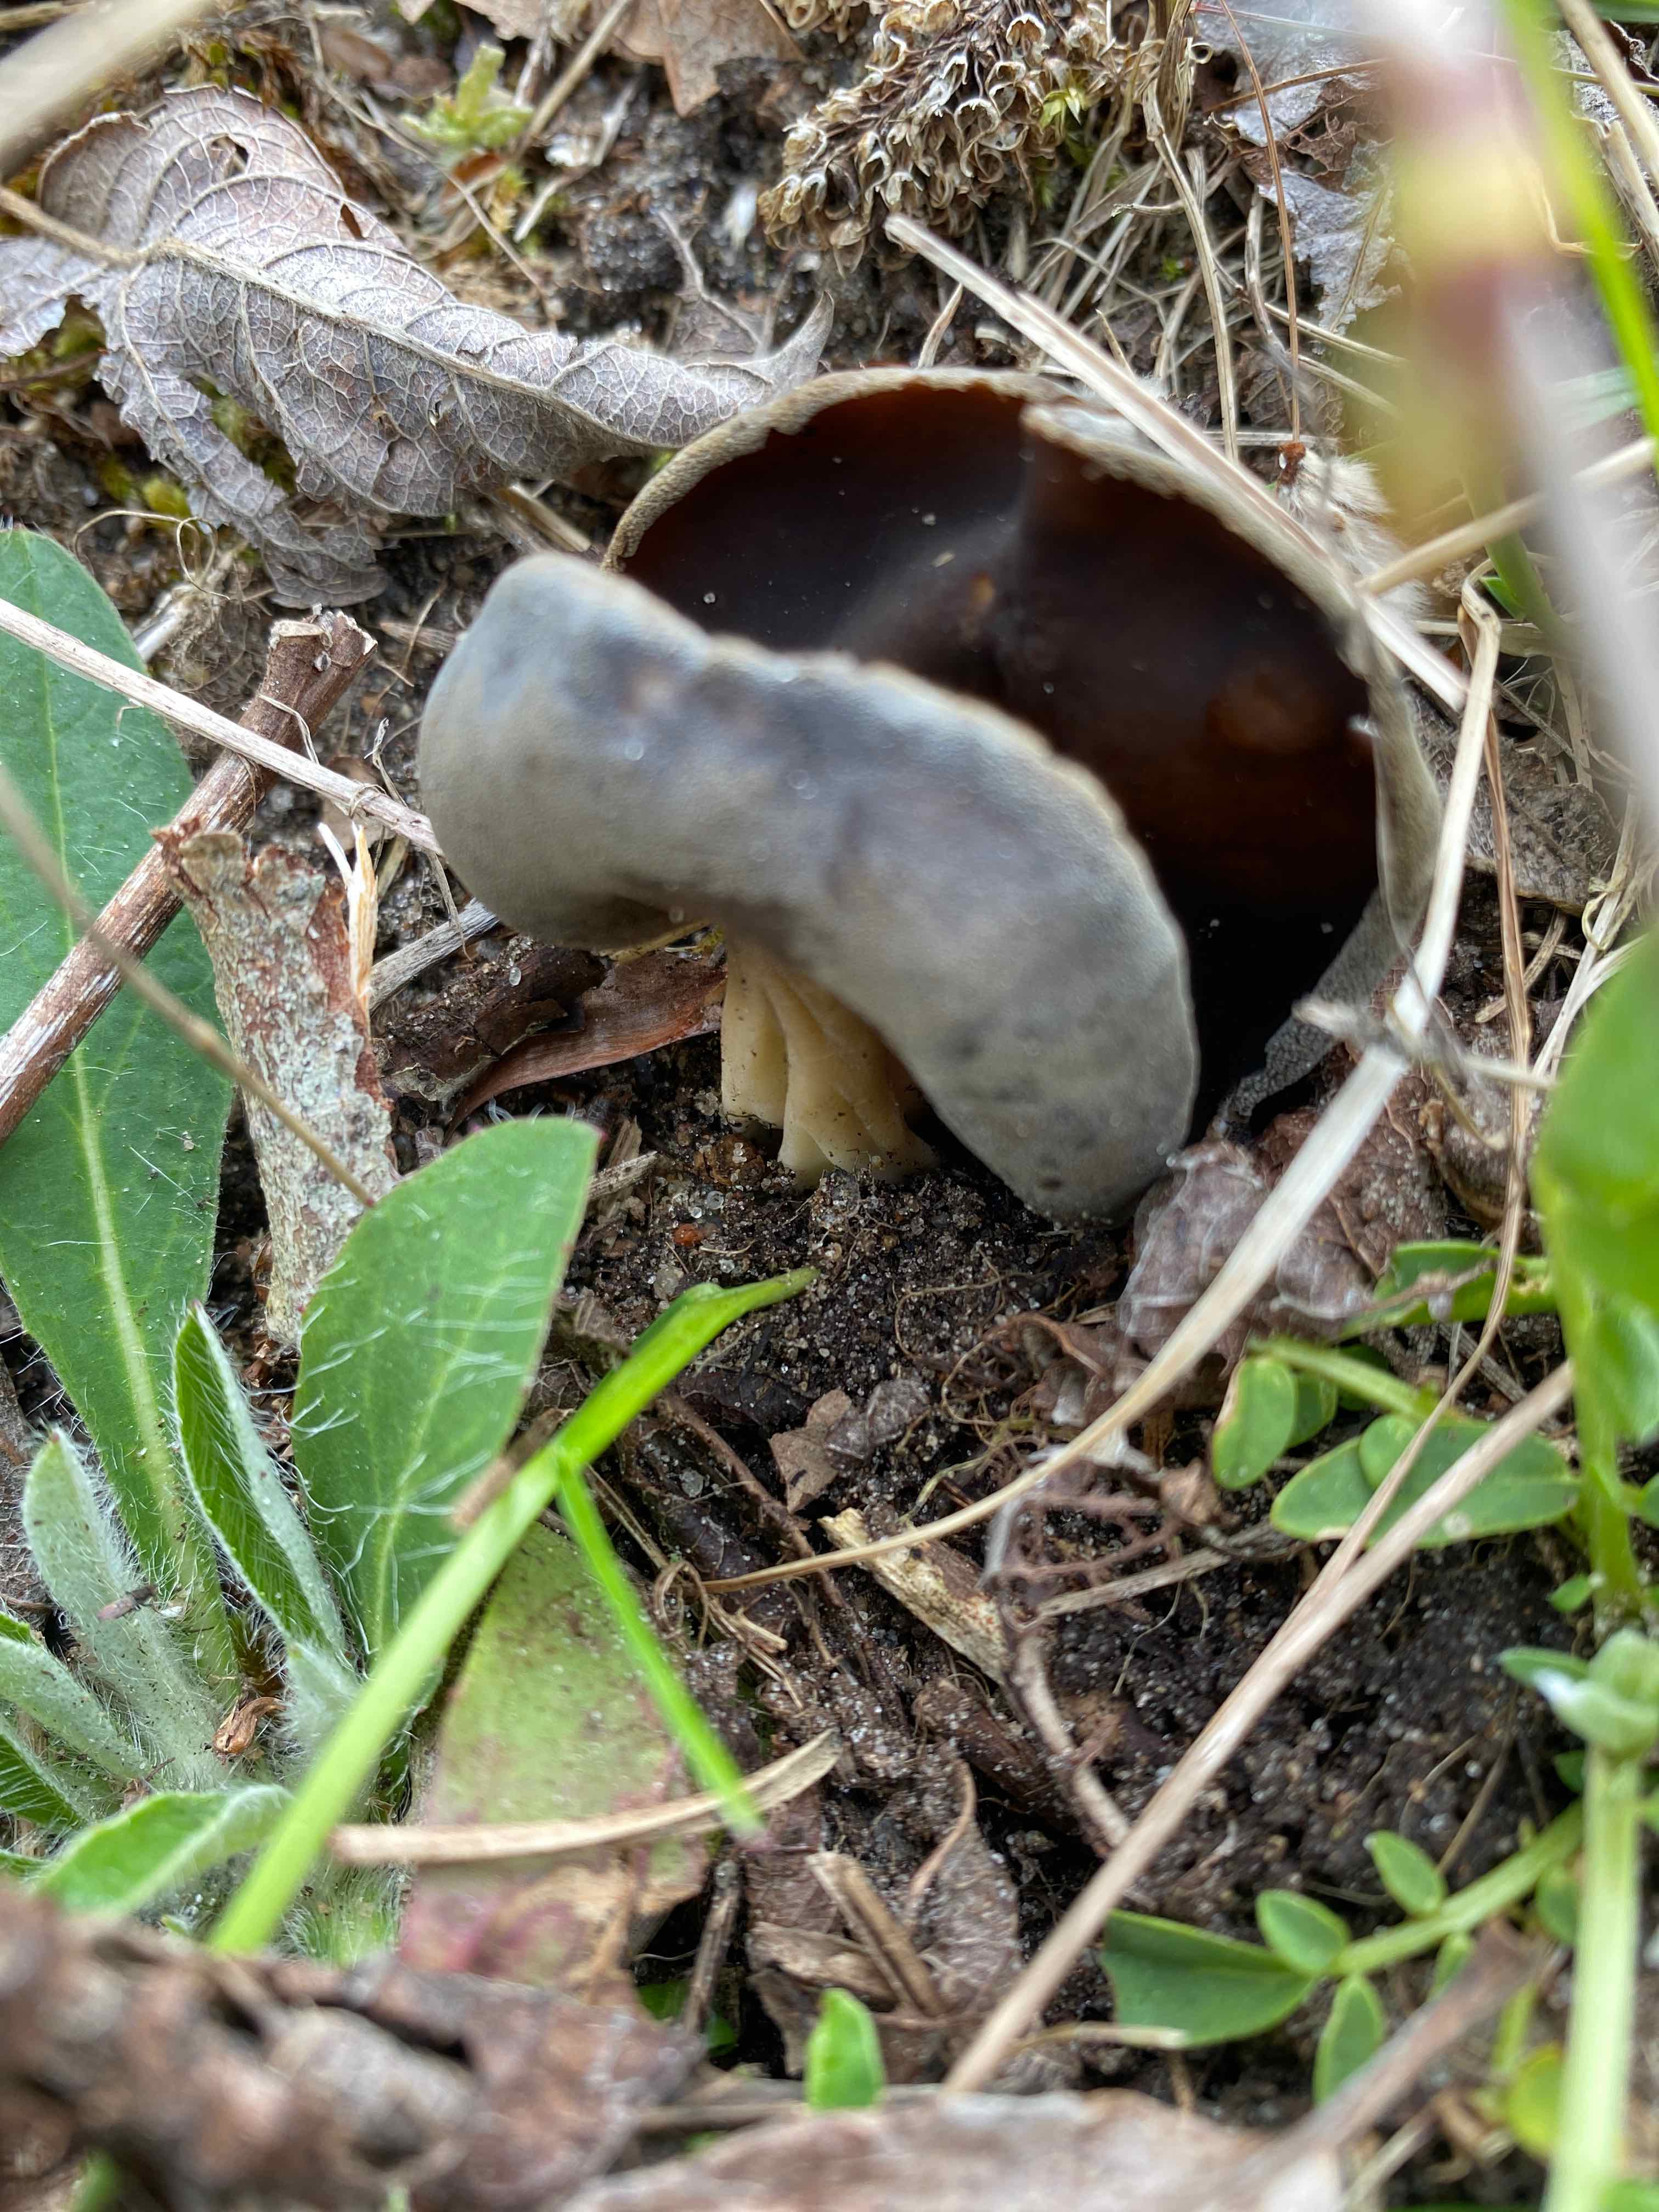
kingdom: Fungi
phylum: Ascomycota
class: Pezizomycetes
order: Pezizales
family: Helvellaceae
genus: Helvella
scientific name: Helvella solitaria
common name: Quélets foldhat
